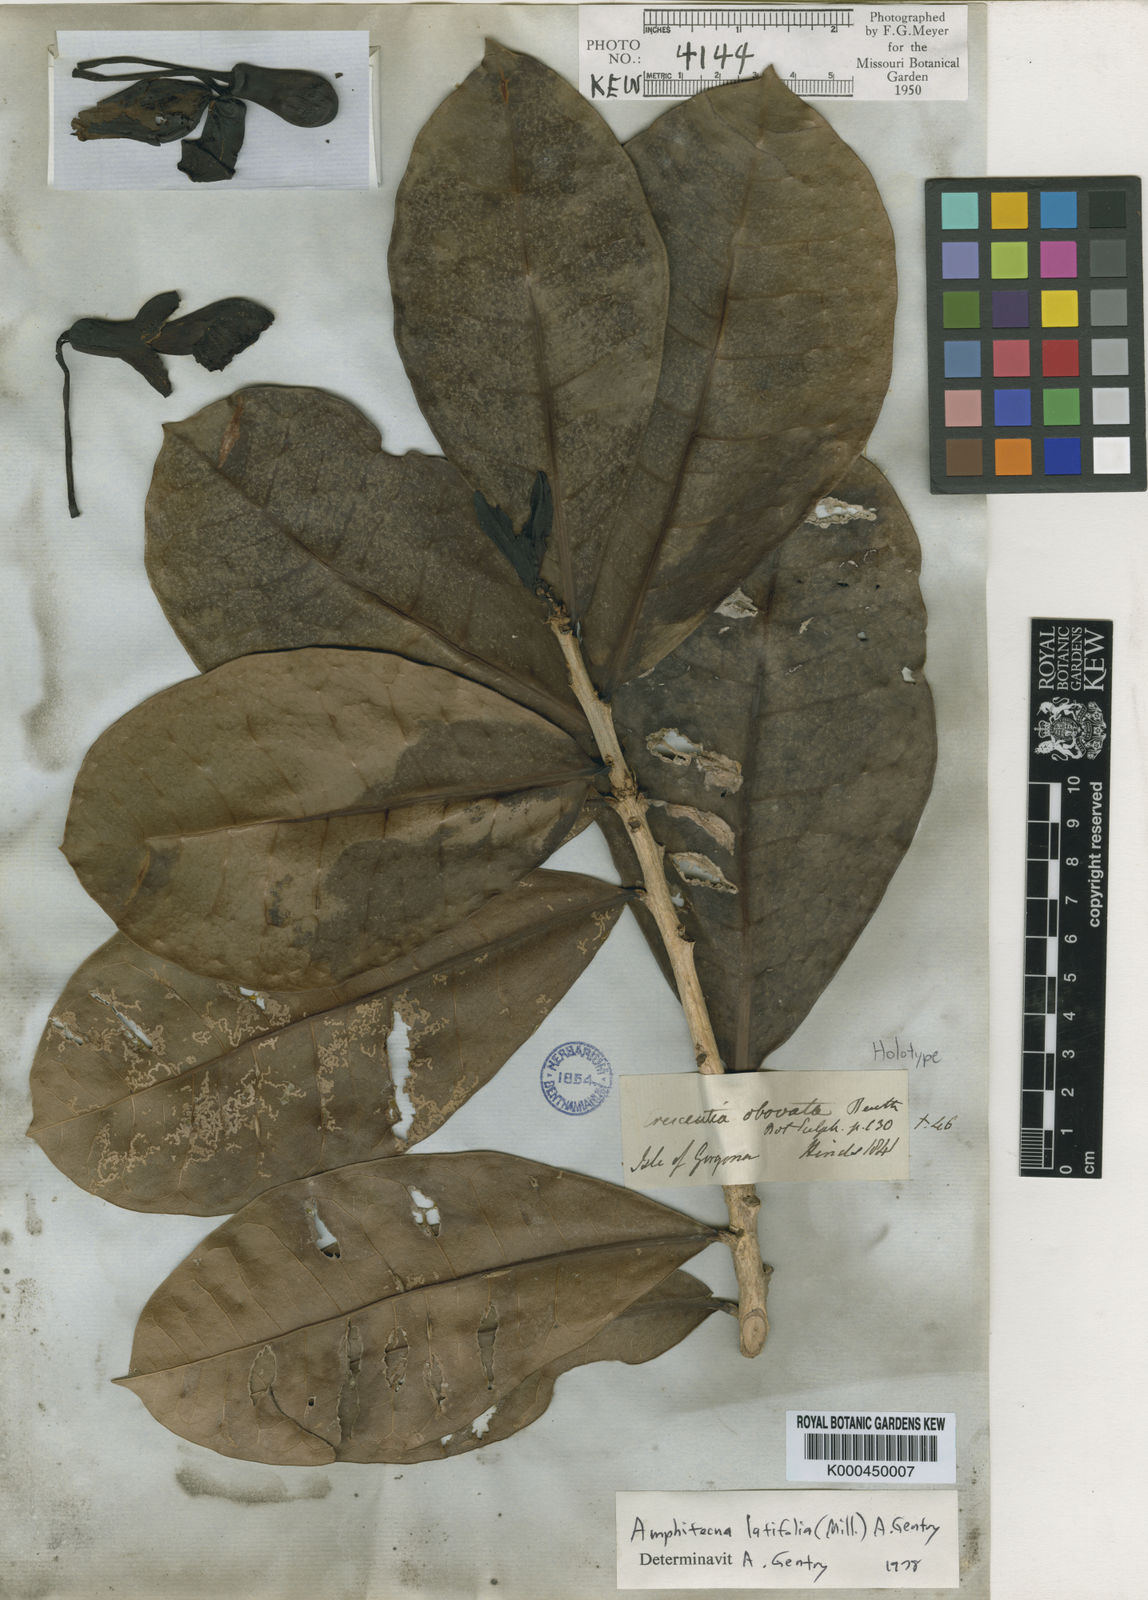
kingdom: Plantae
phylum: Tracheophyta
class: Magnoliopsida
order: Lamiales
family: Bignoniaceae
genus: Amphitecna
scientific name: Amphitecna latifolia
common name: Black-calabash
